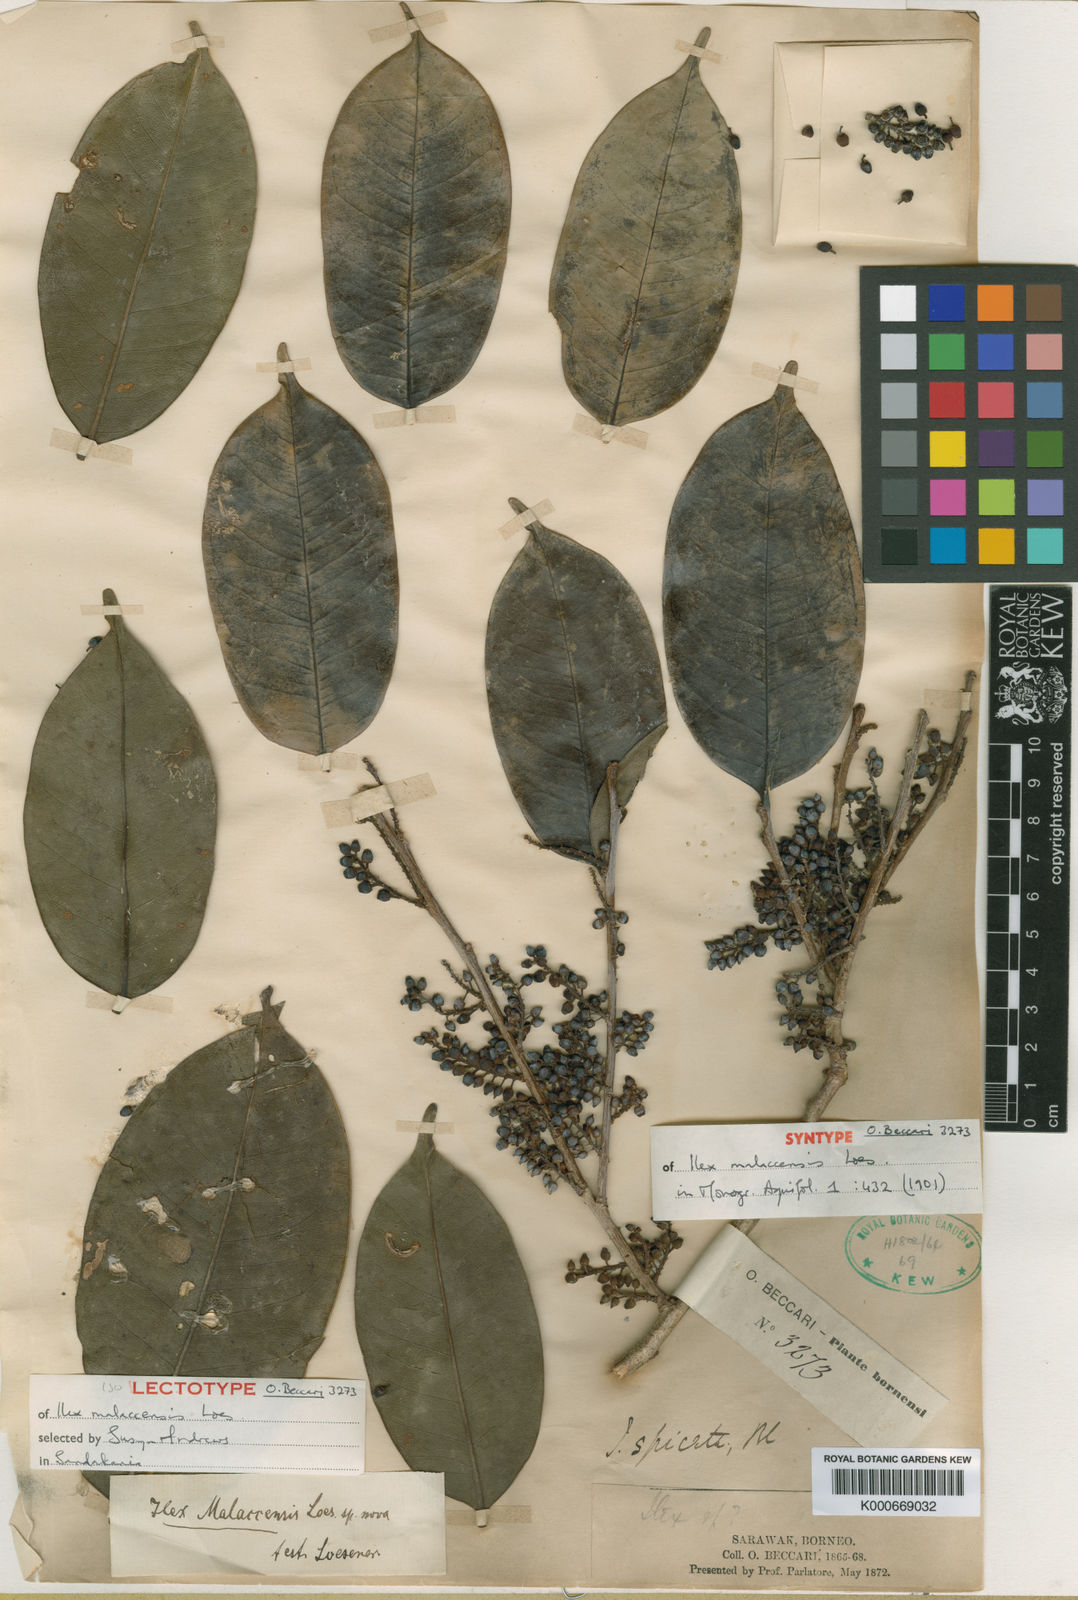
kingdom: Plantae
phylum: Tracheophyta
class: Magnoliopsida
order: Aquifoliales
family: Aquifoliaceae
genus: Ilex
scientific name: Ilex malaccensis
